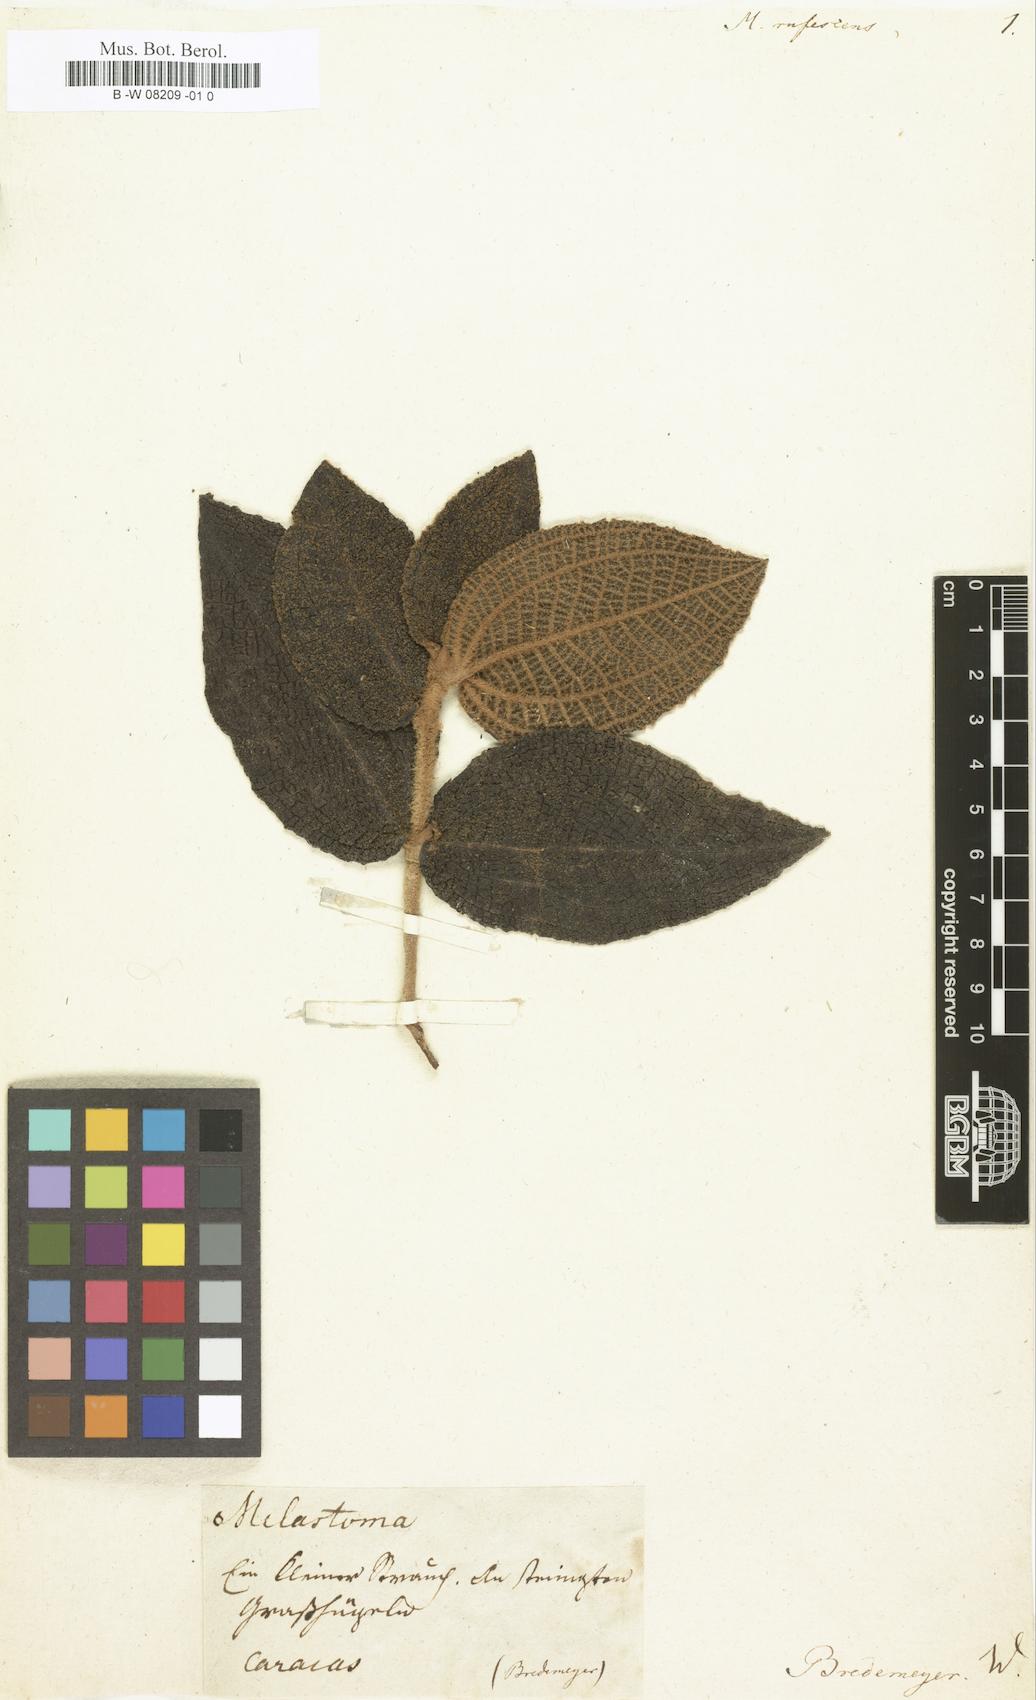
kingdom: Plantae
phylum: Tracheophyta
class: Magnoliopsida
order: Myrtales
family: Melastomataceae
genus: Miconia
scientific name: Miconia rufescens
